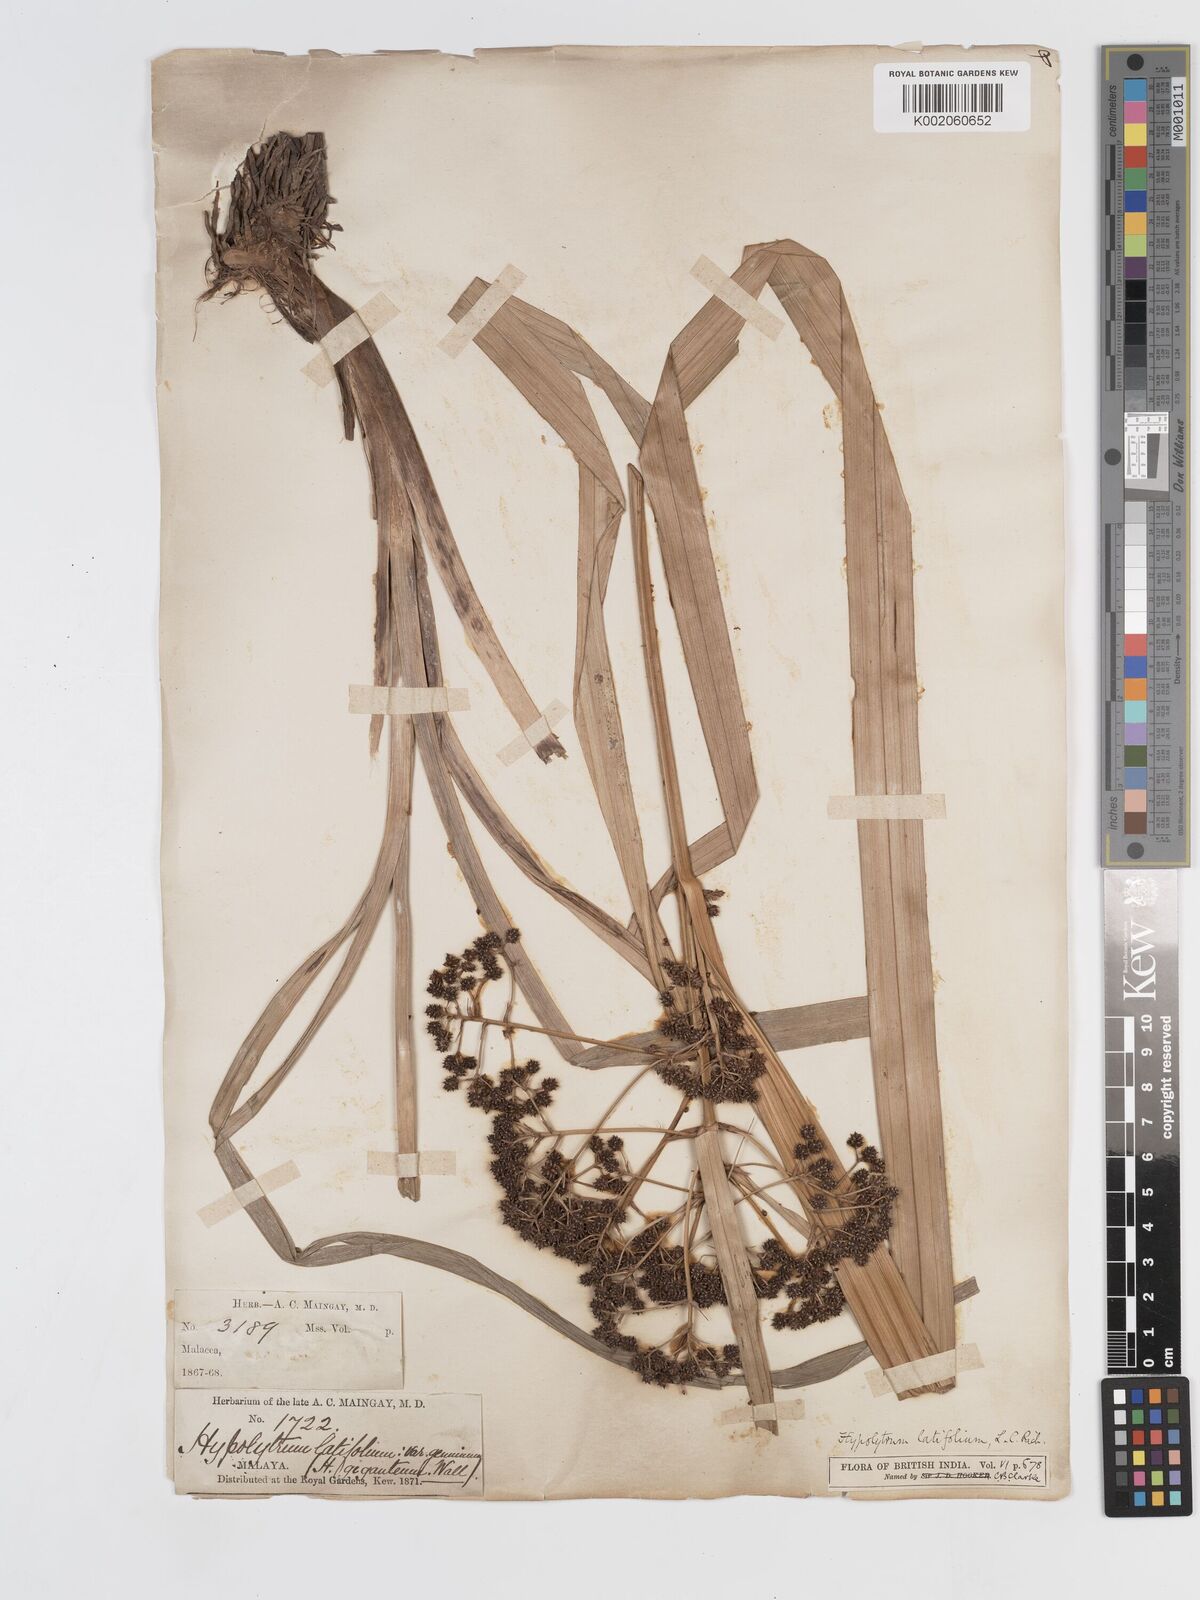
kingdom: Plantae
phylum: Tracheophyta
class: Liliopsida
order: Poales
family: Cyperaceae
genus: Hypolytrum
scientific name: Hypolytrum nemorum
